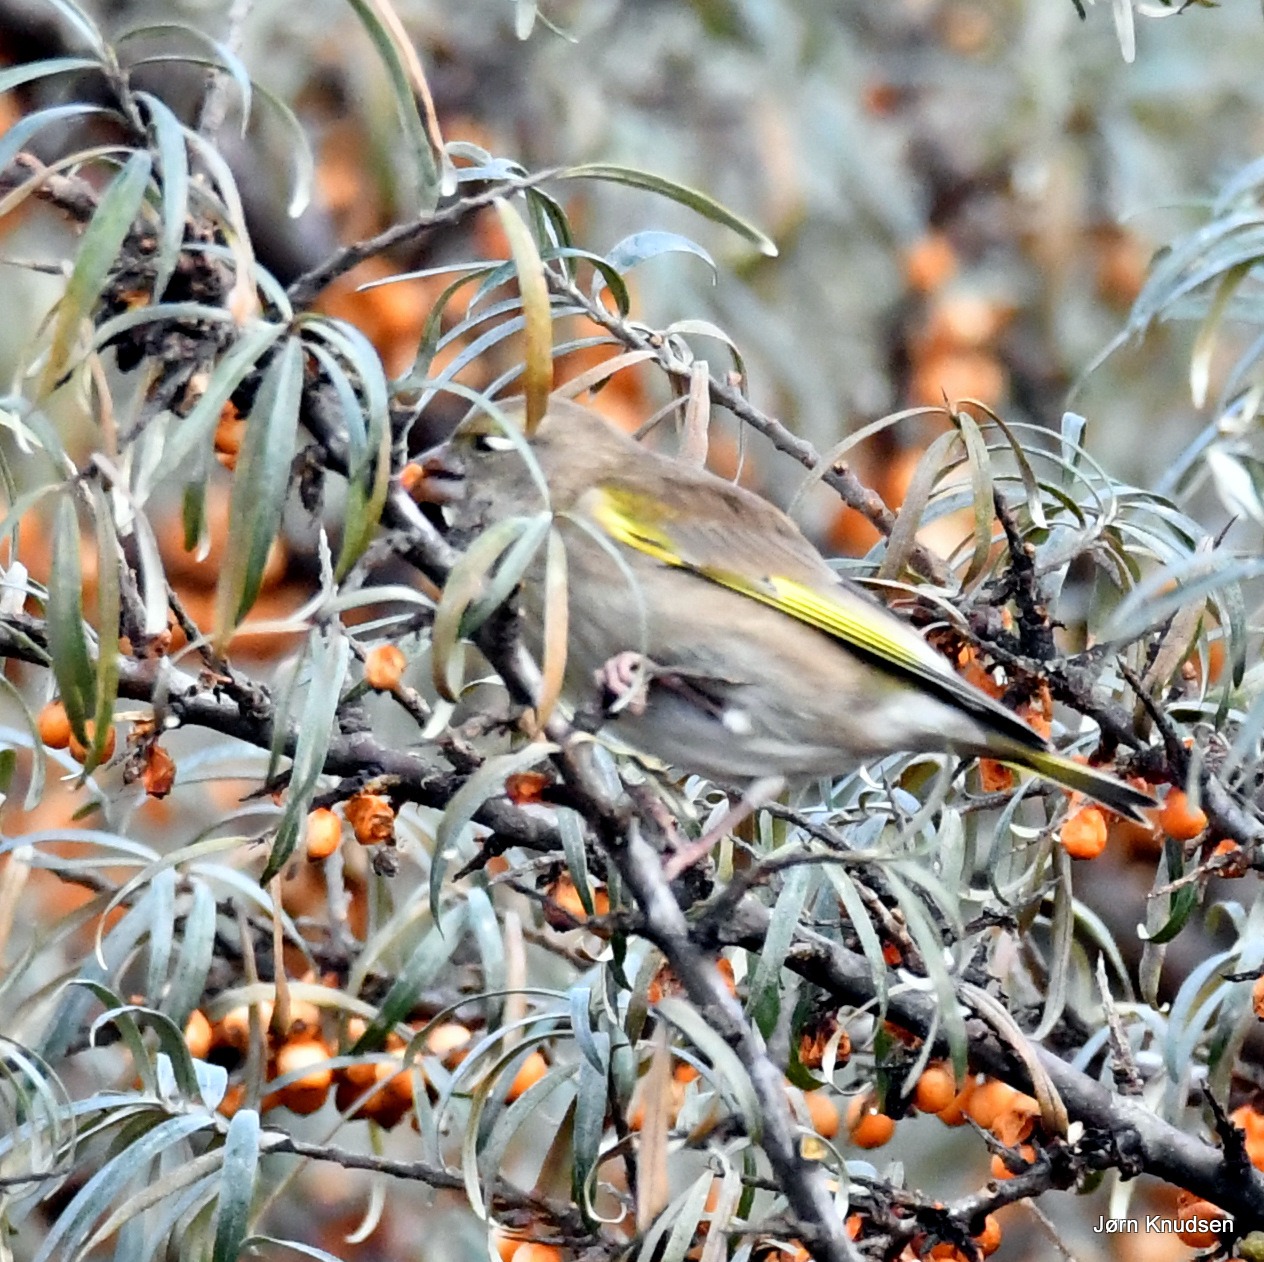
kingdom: Plantae
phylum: Tracheophyta
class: Liliopsida
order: Poales
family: Poaceae
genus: Chloris
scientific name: Chloris chloris
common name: Grønirisk
